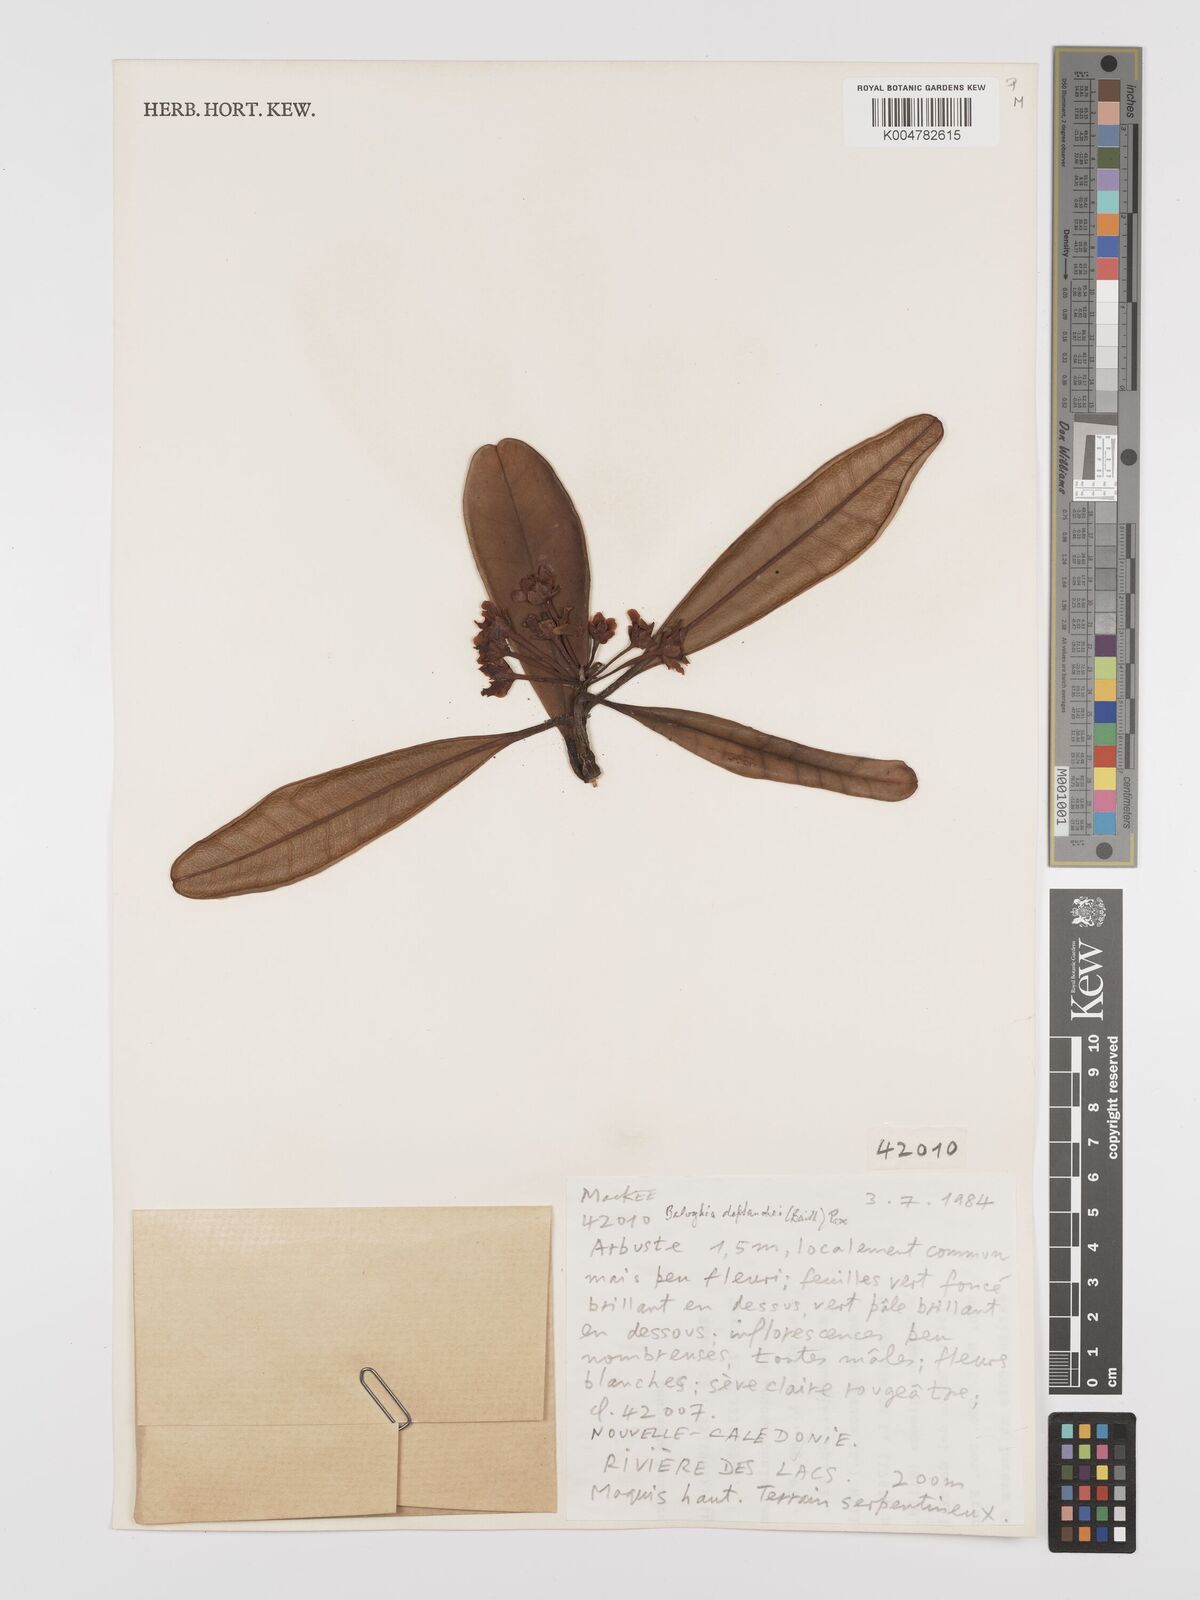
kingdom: Plantae
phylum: Tracheophyta
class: Magnoliopsida
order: Malpighiales
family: Euphorbiaceae
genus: Baloghia
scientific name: Baloghia deplanchei
